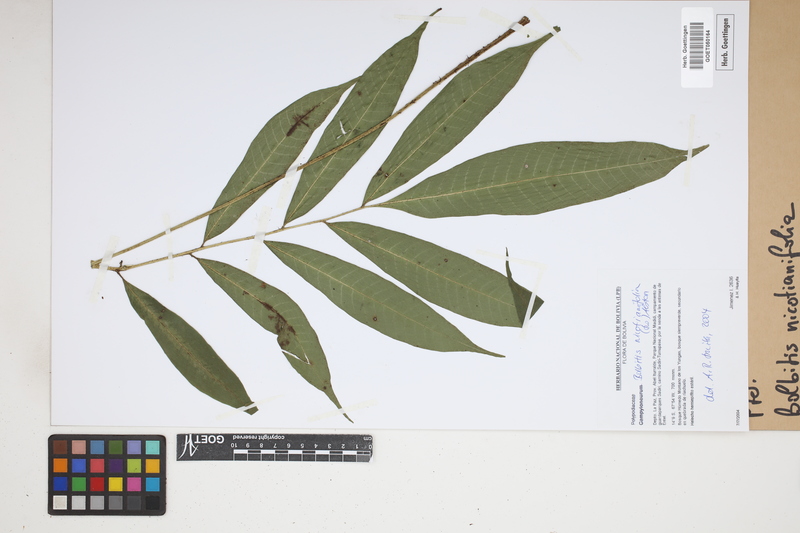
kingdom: Plantae
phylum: Tracheophyta
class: Polypodiopsida
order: Polypodiales
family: Dryopteridaceae
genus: Mickelia
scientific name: Mickelia nicotianifolia
